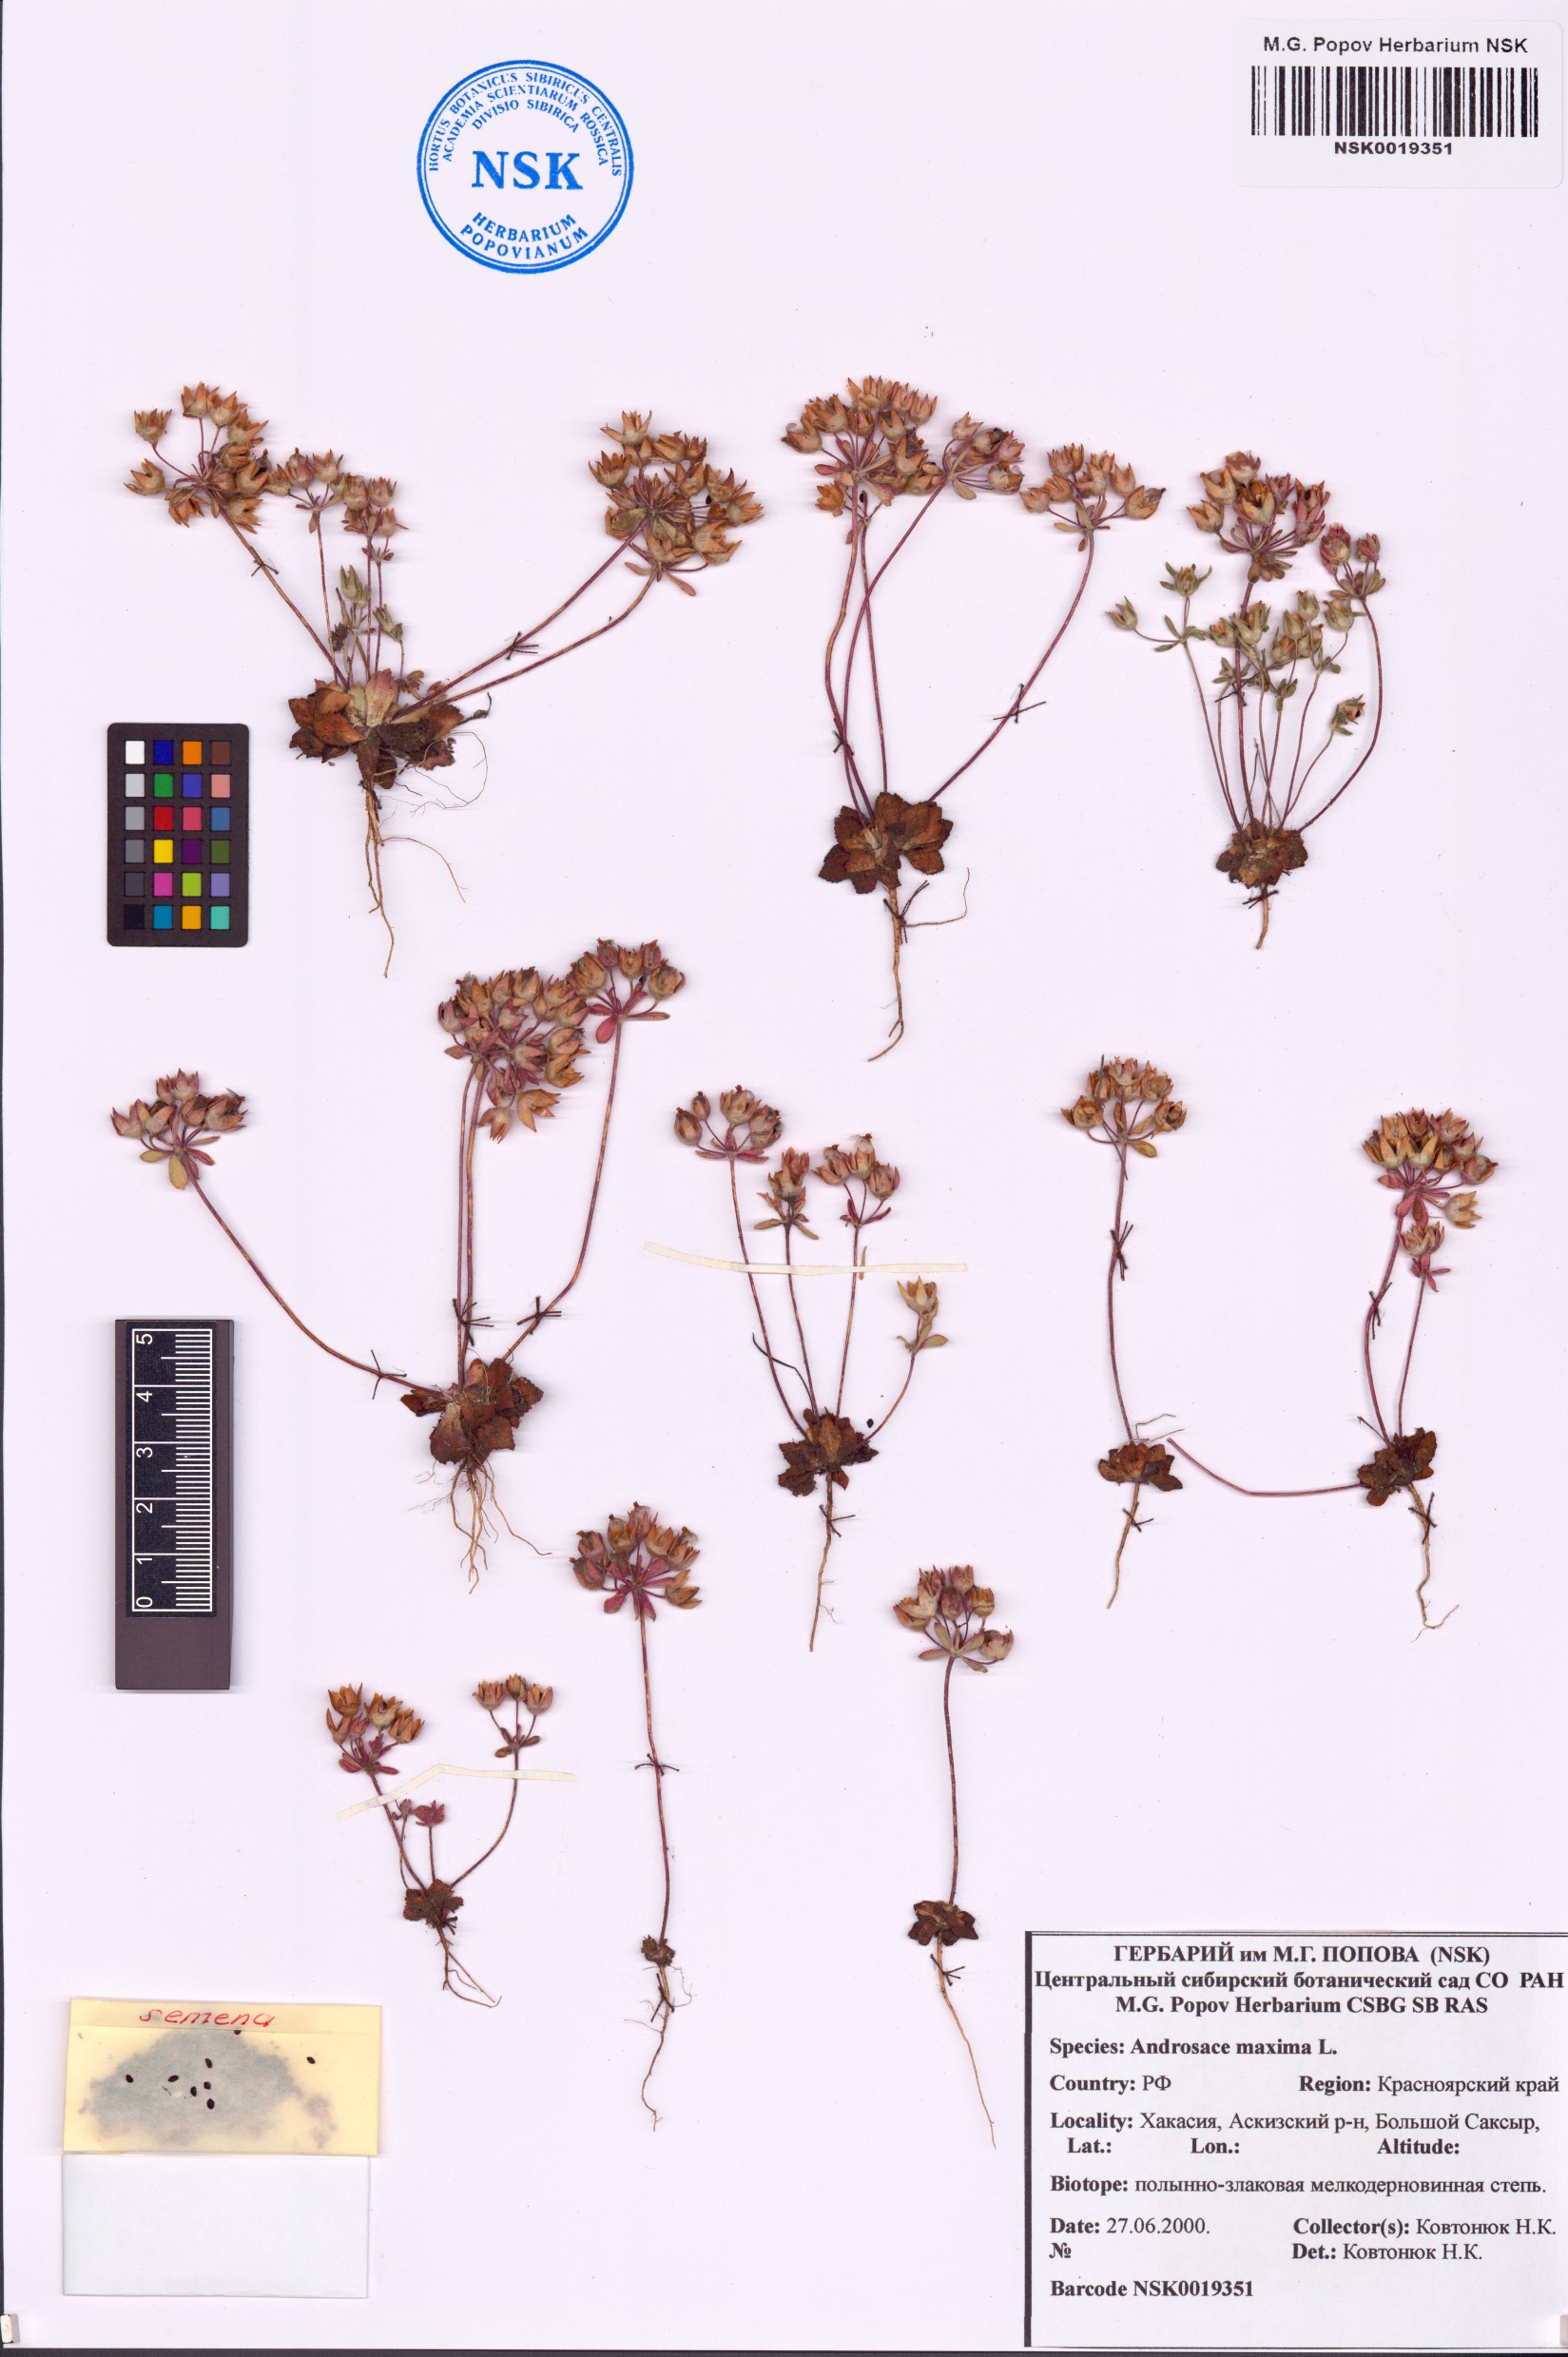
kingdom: Plantae
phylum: Tracheophyta
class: Magnoliopsida
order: Ericales
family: Primulaceae
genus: Androsace
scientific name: Androsace maxima
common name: Annual androsace
